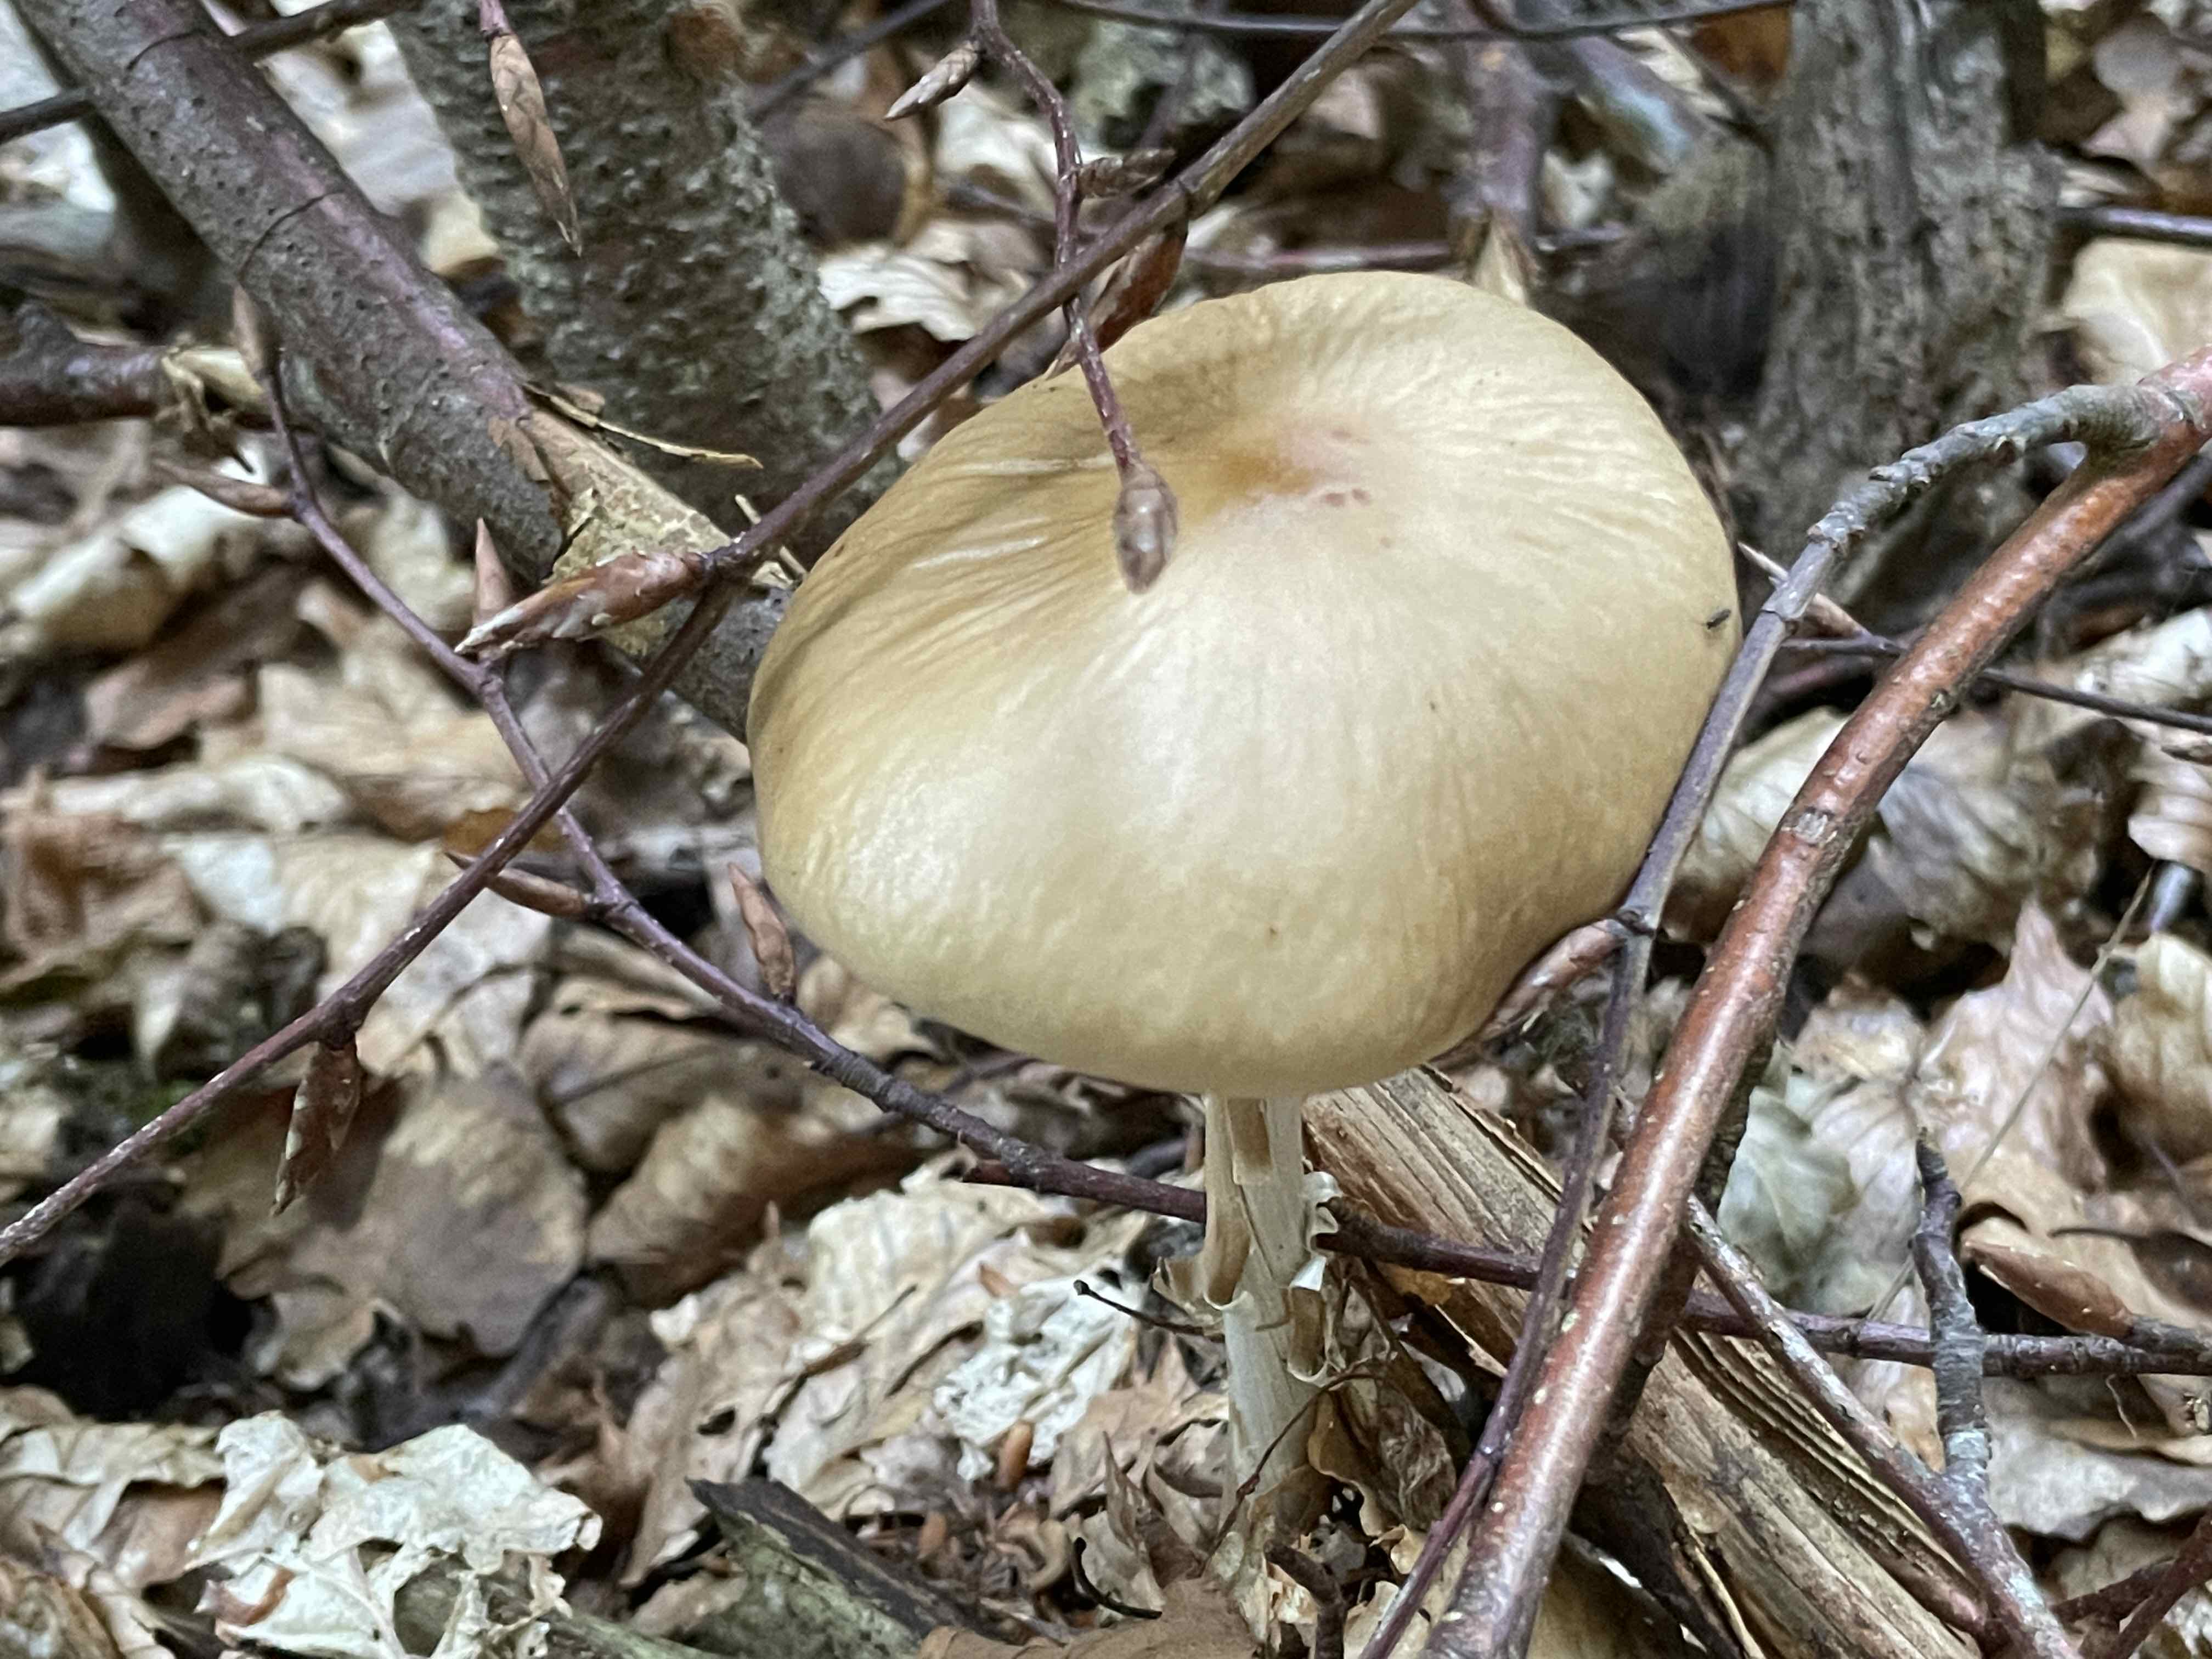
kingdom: Fungi
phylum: Basidiomycota
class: Agaricomycetes
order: Agaricales
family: Physalacriaceae
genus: Hymenopellis
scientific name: Hymenopellis radicata
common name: almindelig pælerodshat
